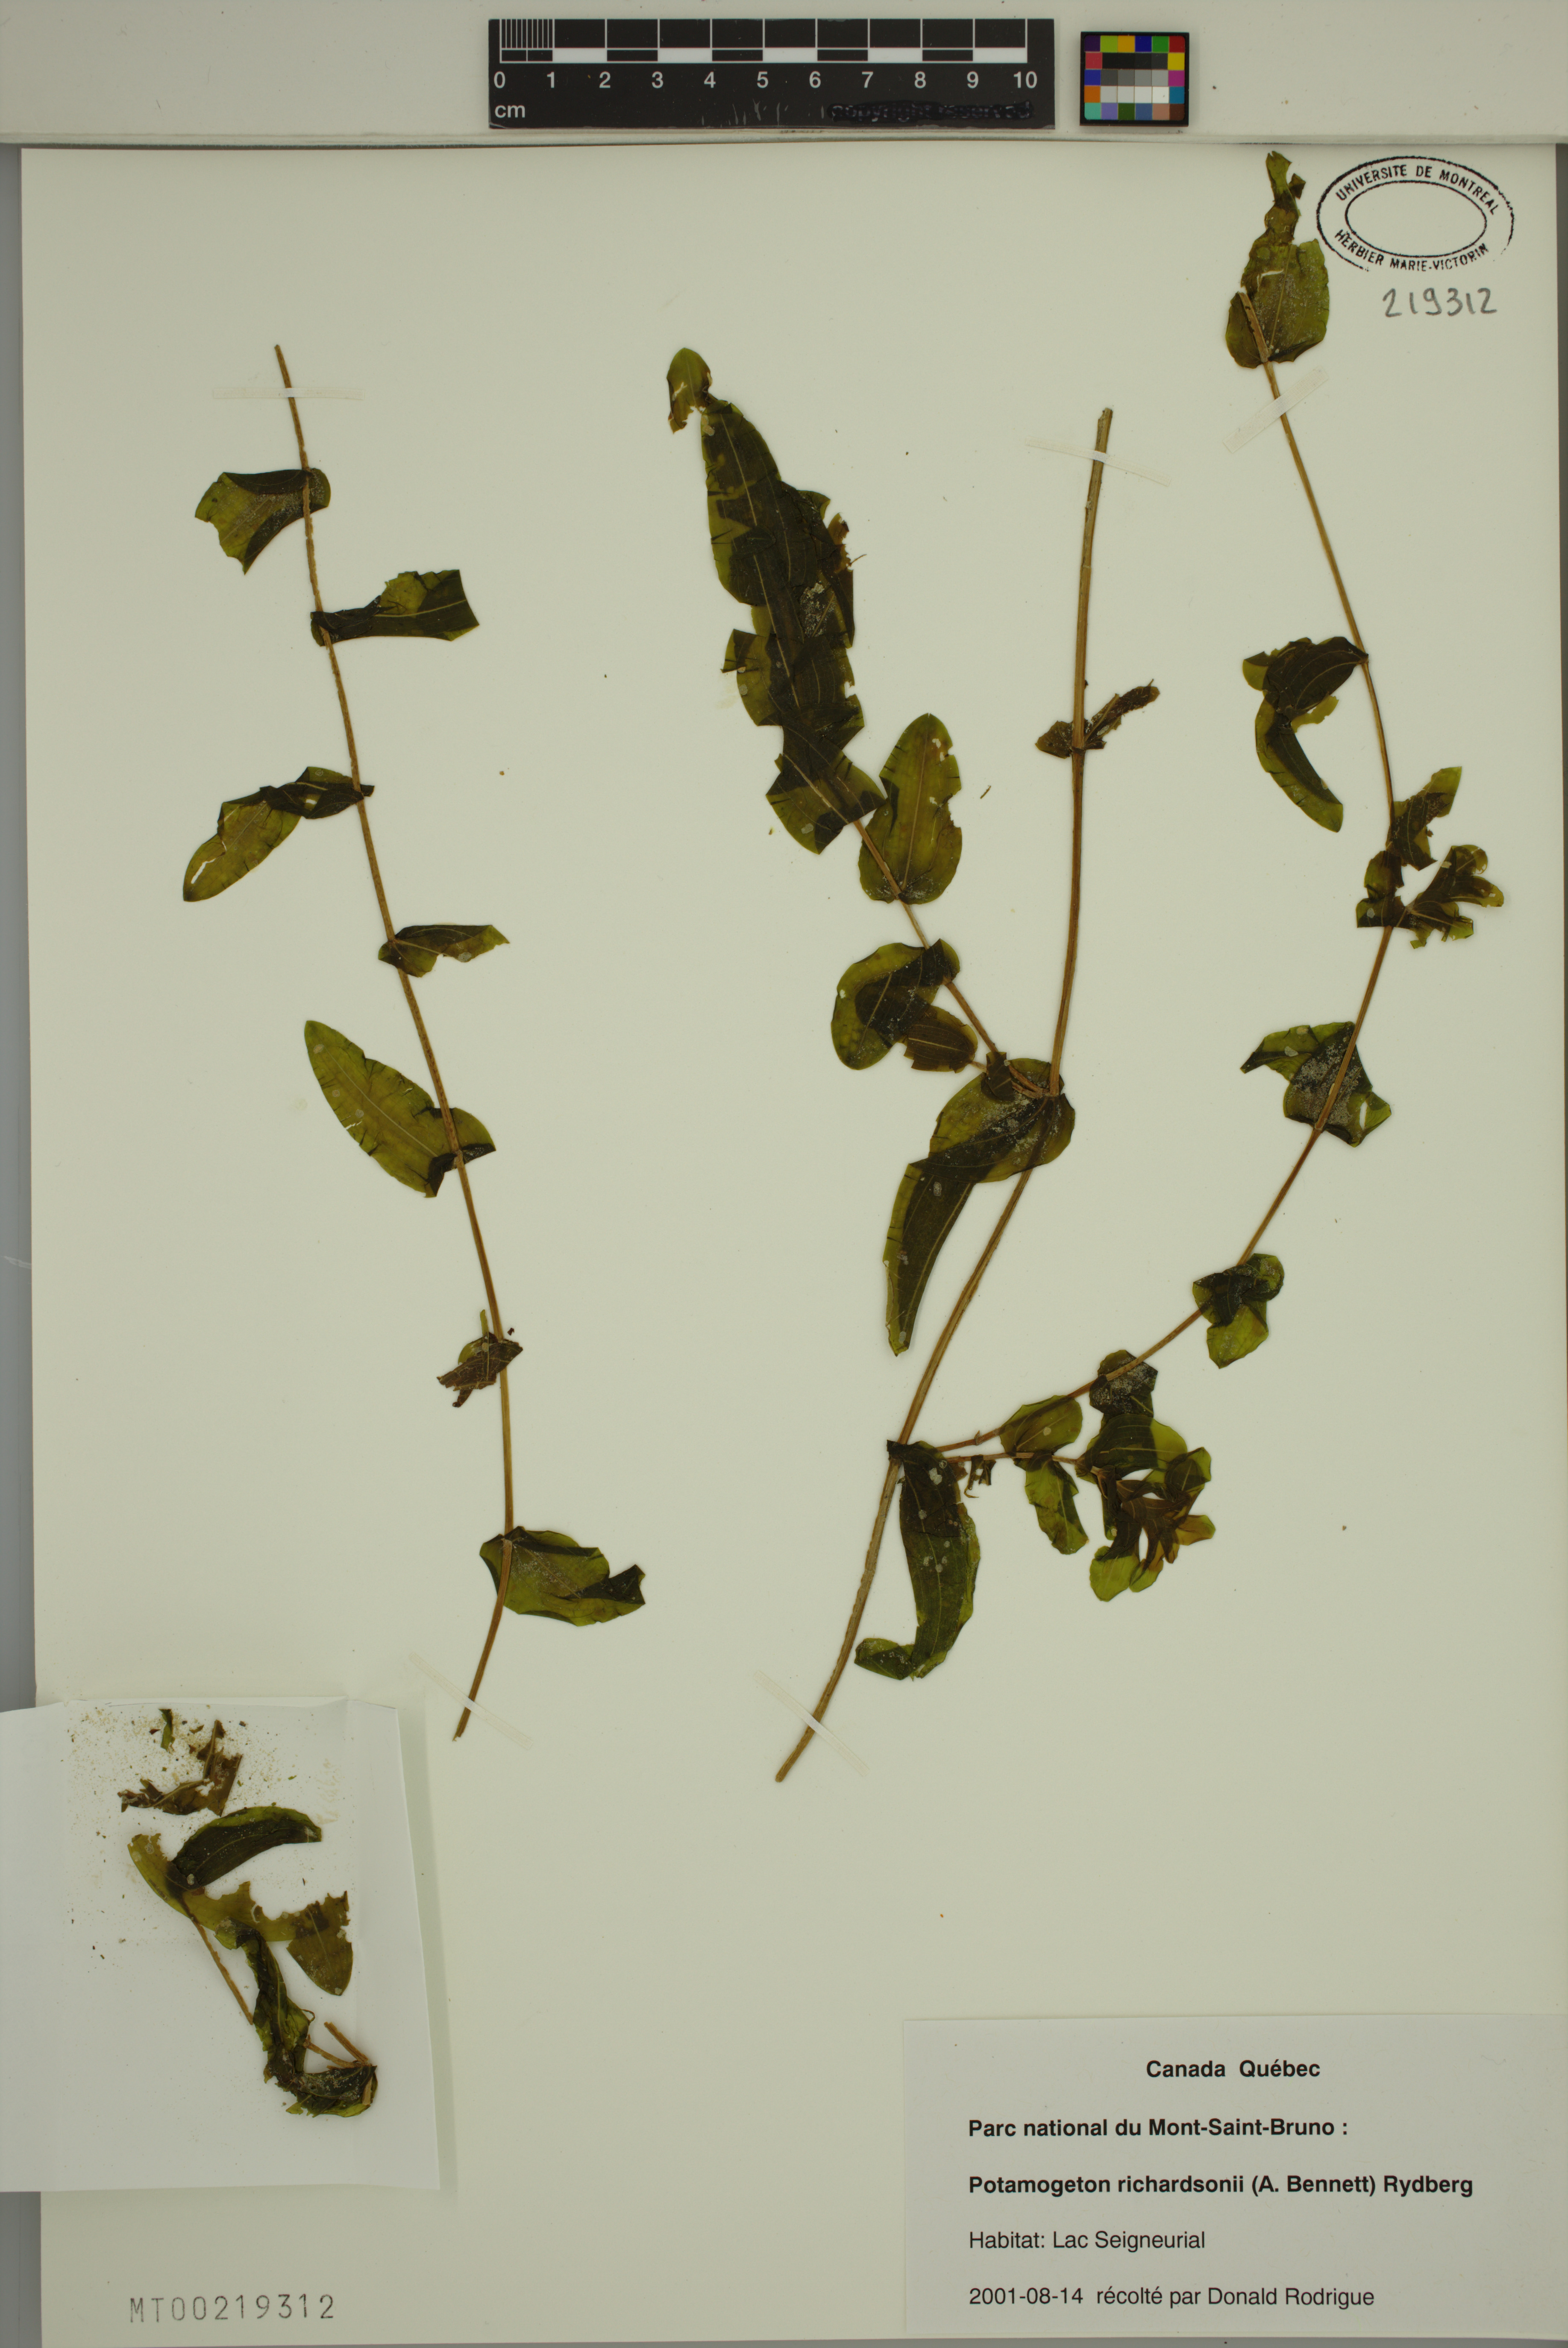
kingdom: Plantae
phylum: Tracheophyta
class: Liliopsida
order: Alismatales
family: Potamogetonaceae
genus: Potamogeton
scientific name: Potamogeton richardsonii
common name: Richardson's pondweed
